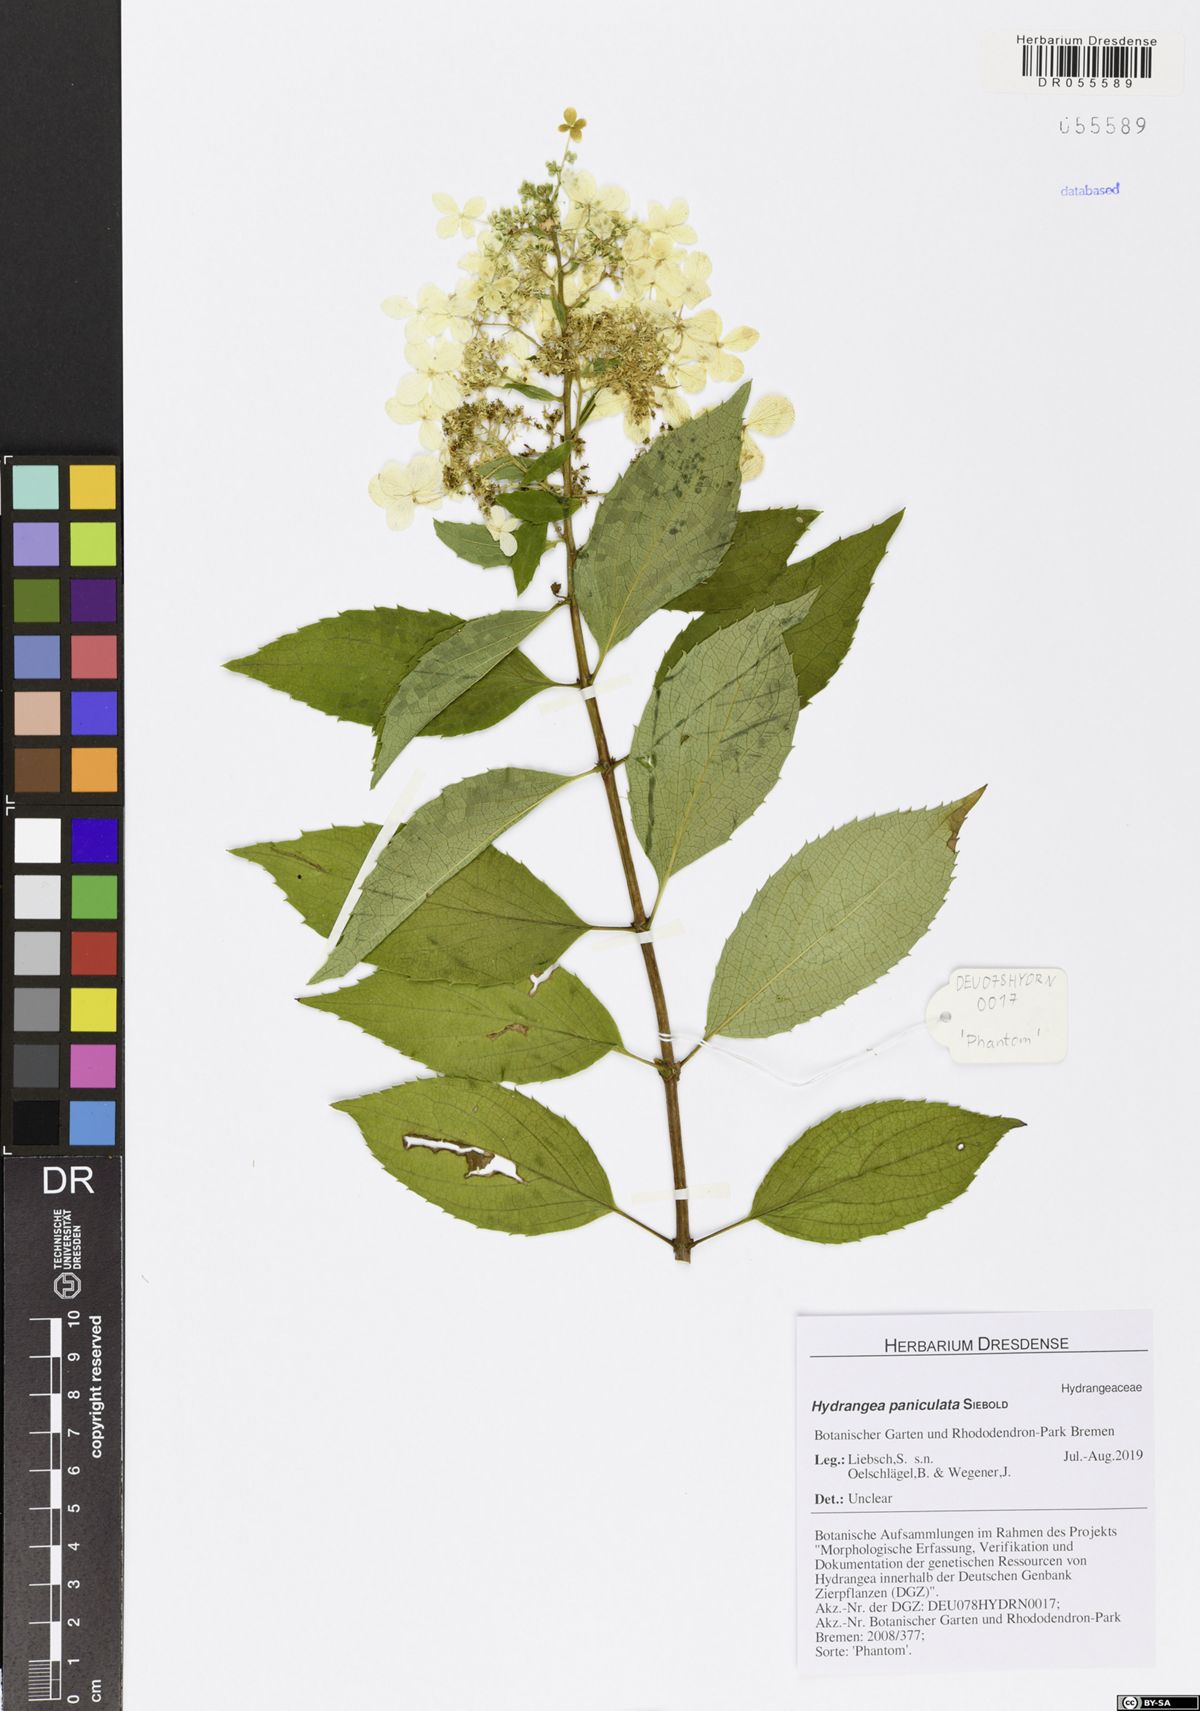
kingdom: Plantae
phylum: Tracheophyta
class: Magnoliopsida
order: Cornales
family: Hydrangeaceae
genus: Hydrangea
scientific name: Hydrangea paniculata
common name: Panicled hydrangea
